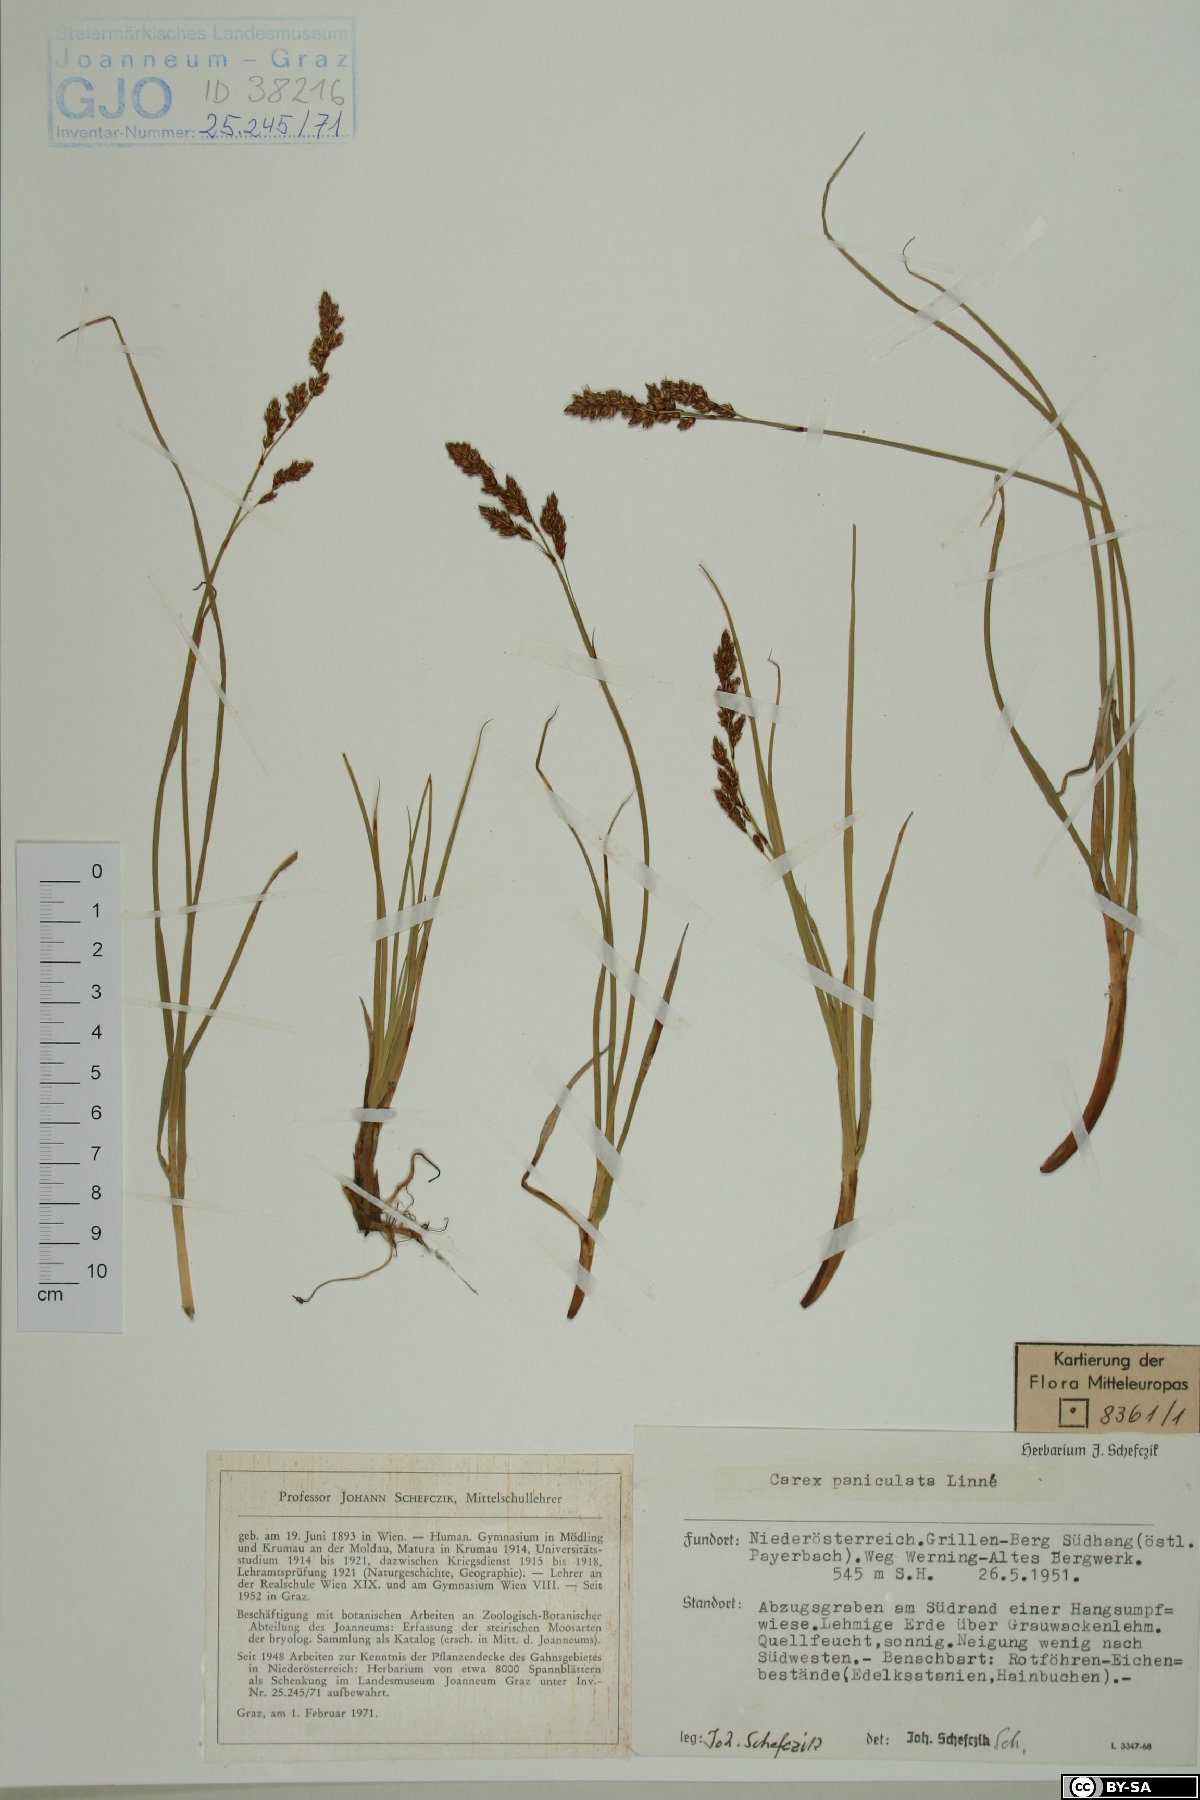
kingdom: Plantae
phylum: Tracheophyta
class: Liliopsida
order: Poales
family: Cyperaceae
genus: Carex
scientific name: Carex paniculata
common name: Greater tussock-sedge
